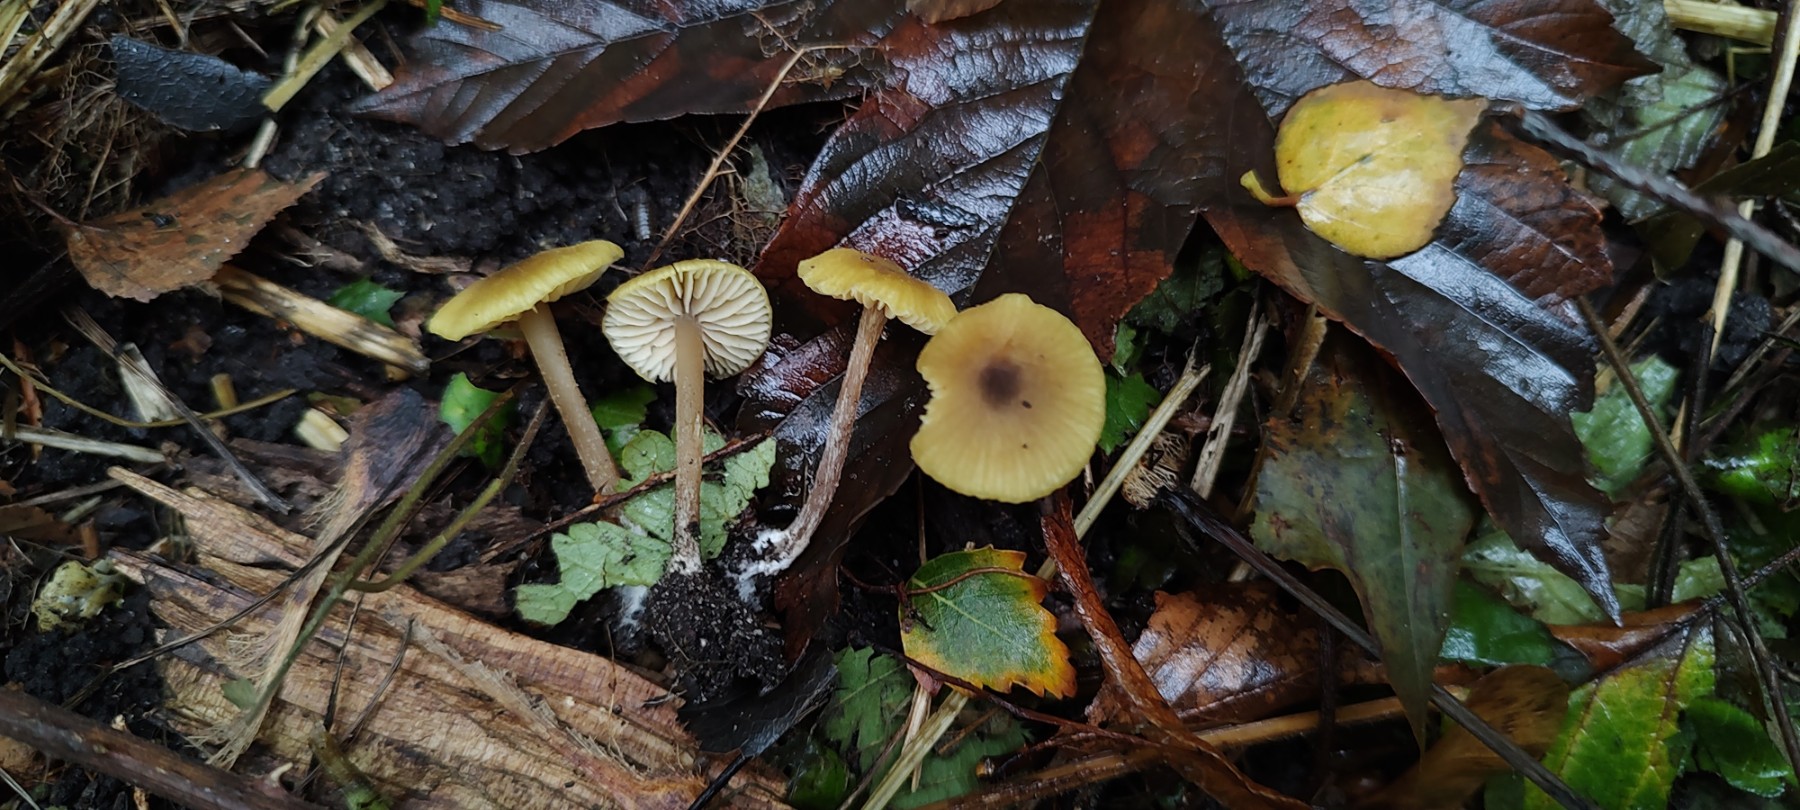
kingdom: Fungi
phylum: Basidiomycota
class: Agaricomycetes
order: Agaricales
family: Entolomataceae
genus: Entoloma
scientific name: Entoloma pleopodium
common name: duftende rødblad
